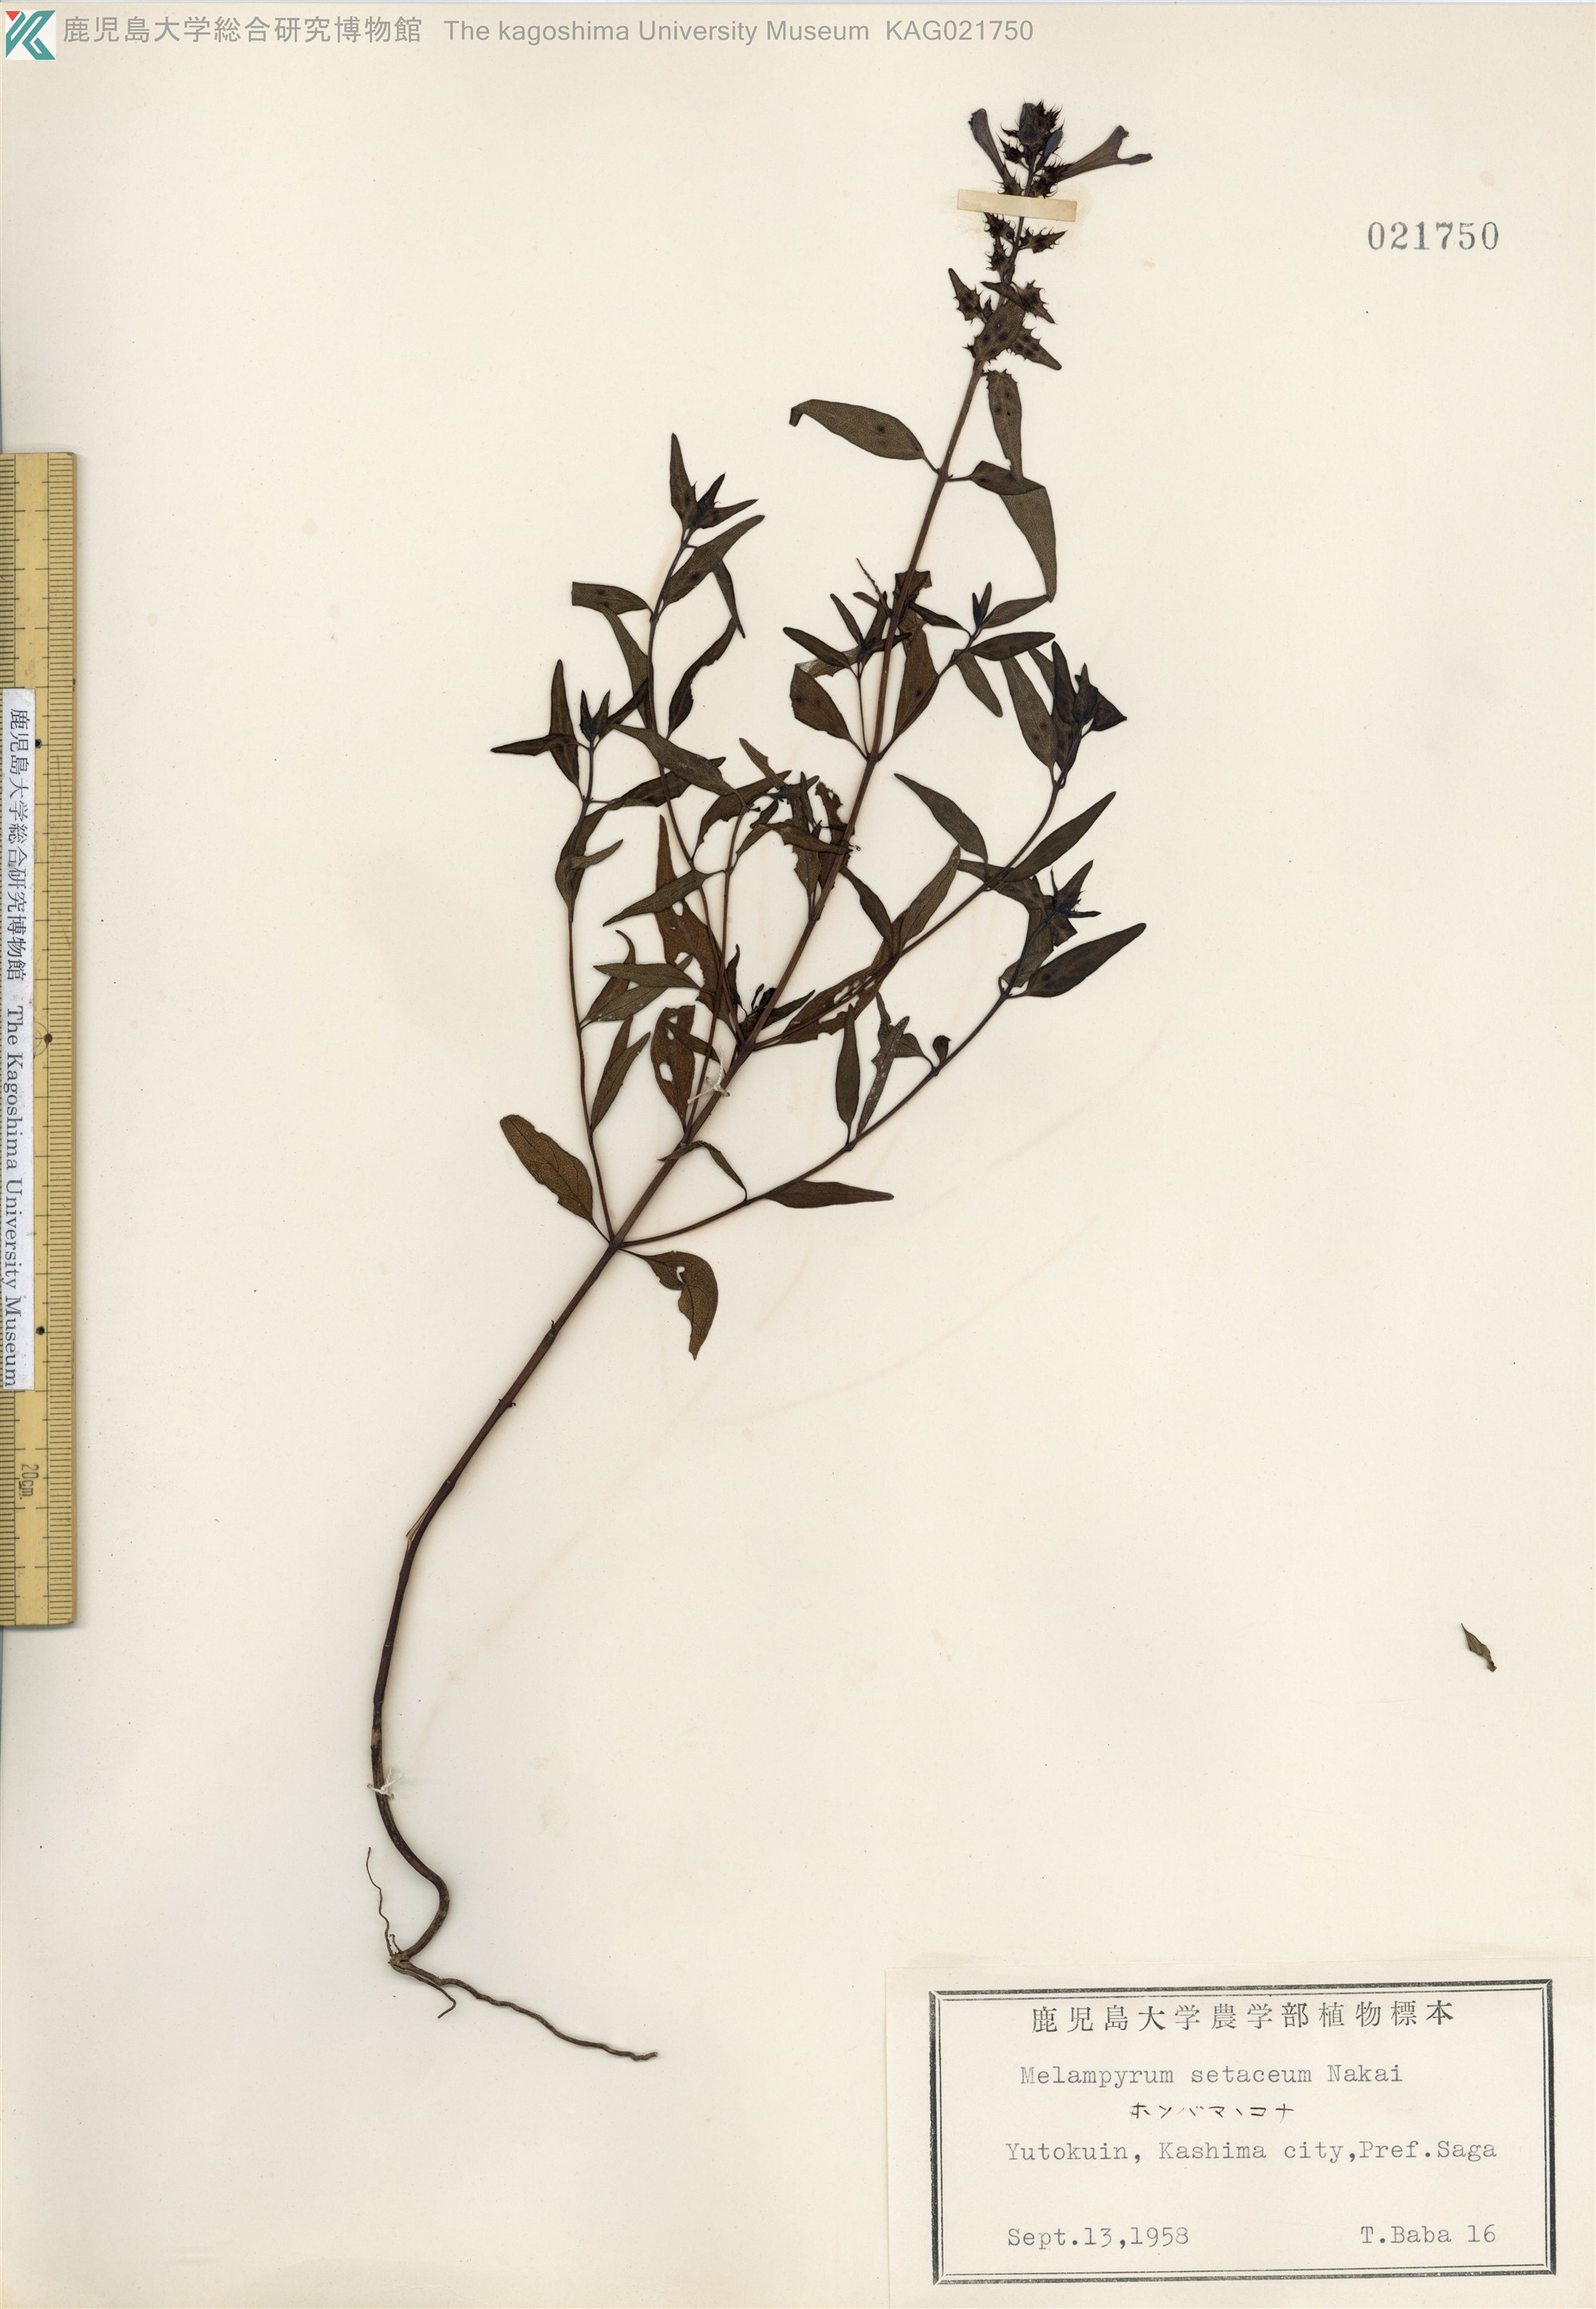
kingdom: Plantae
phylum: Tracheophyta
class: Magnoliopsida
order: Lamiales
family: Orobanchaceae
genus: Melampyrum
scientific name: Melampyrum setaceum
